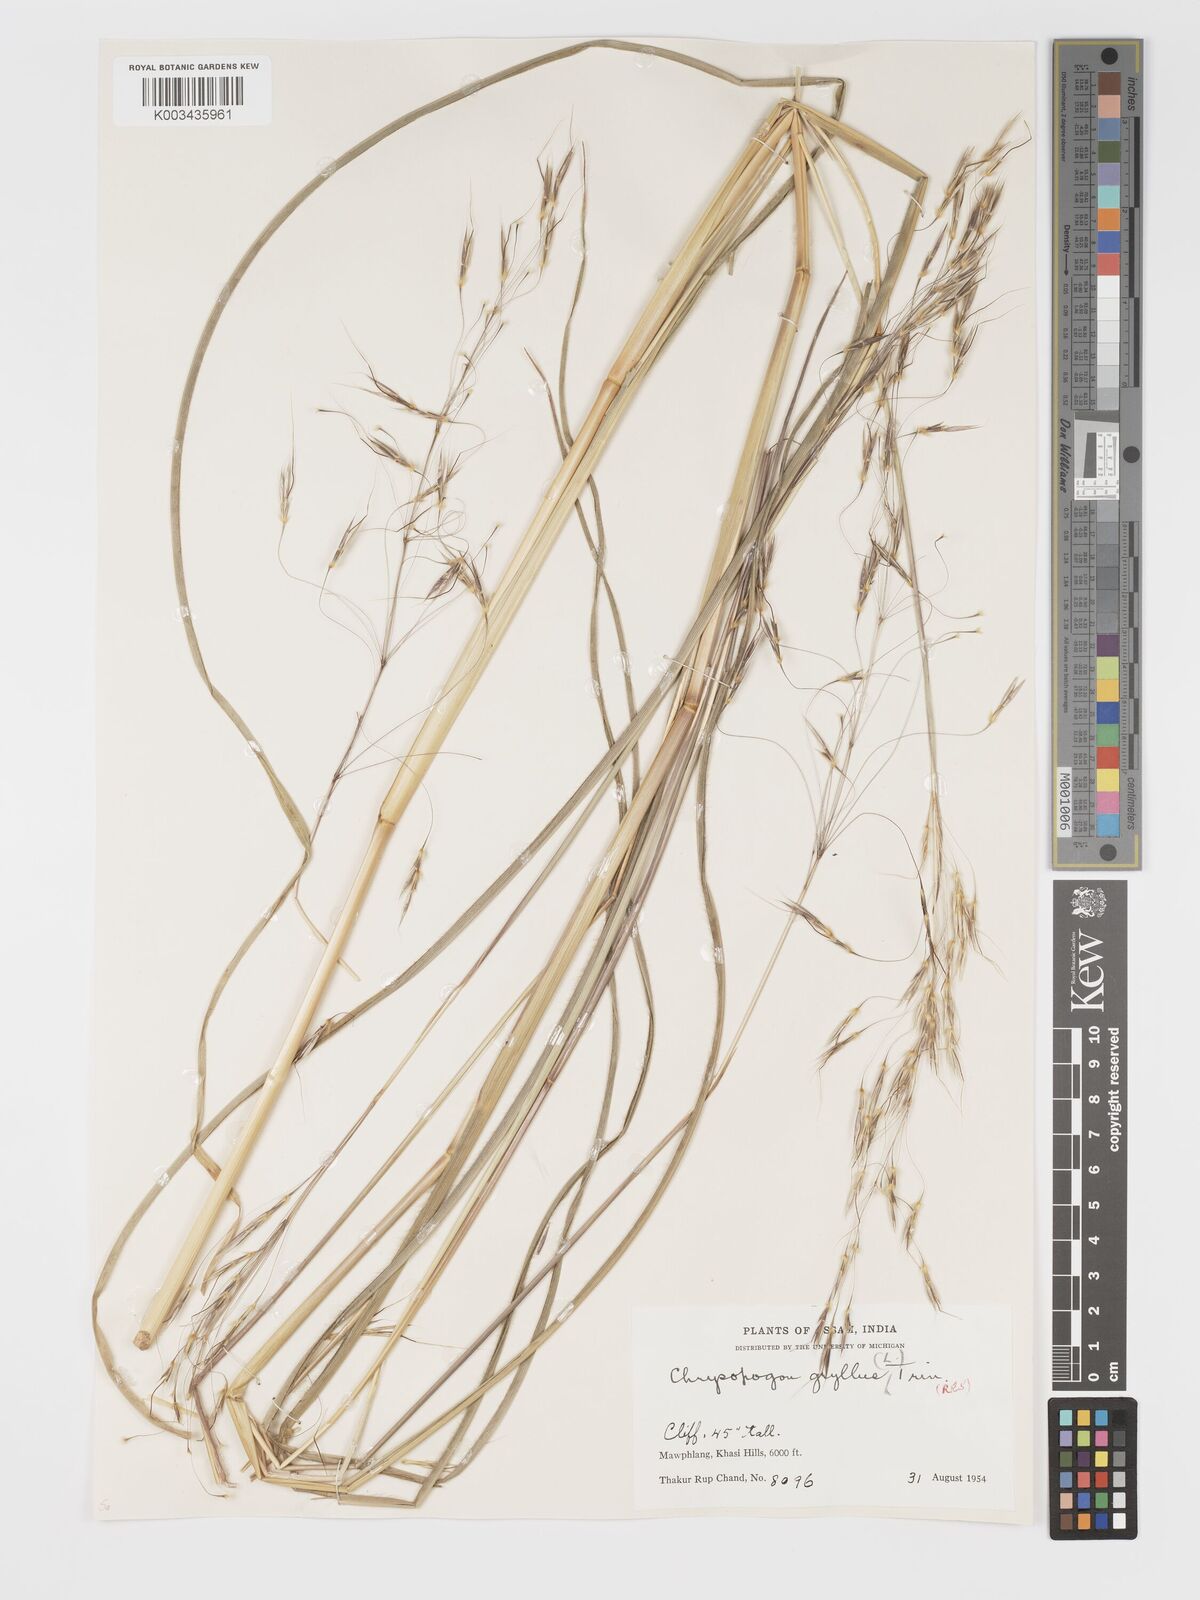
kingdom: Plantae
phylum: Tracheophyta
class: Liliopsida
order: Poales
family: Poaceae
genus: Chrysopogon
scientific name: Chrysopogon gryllus
